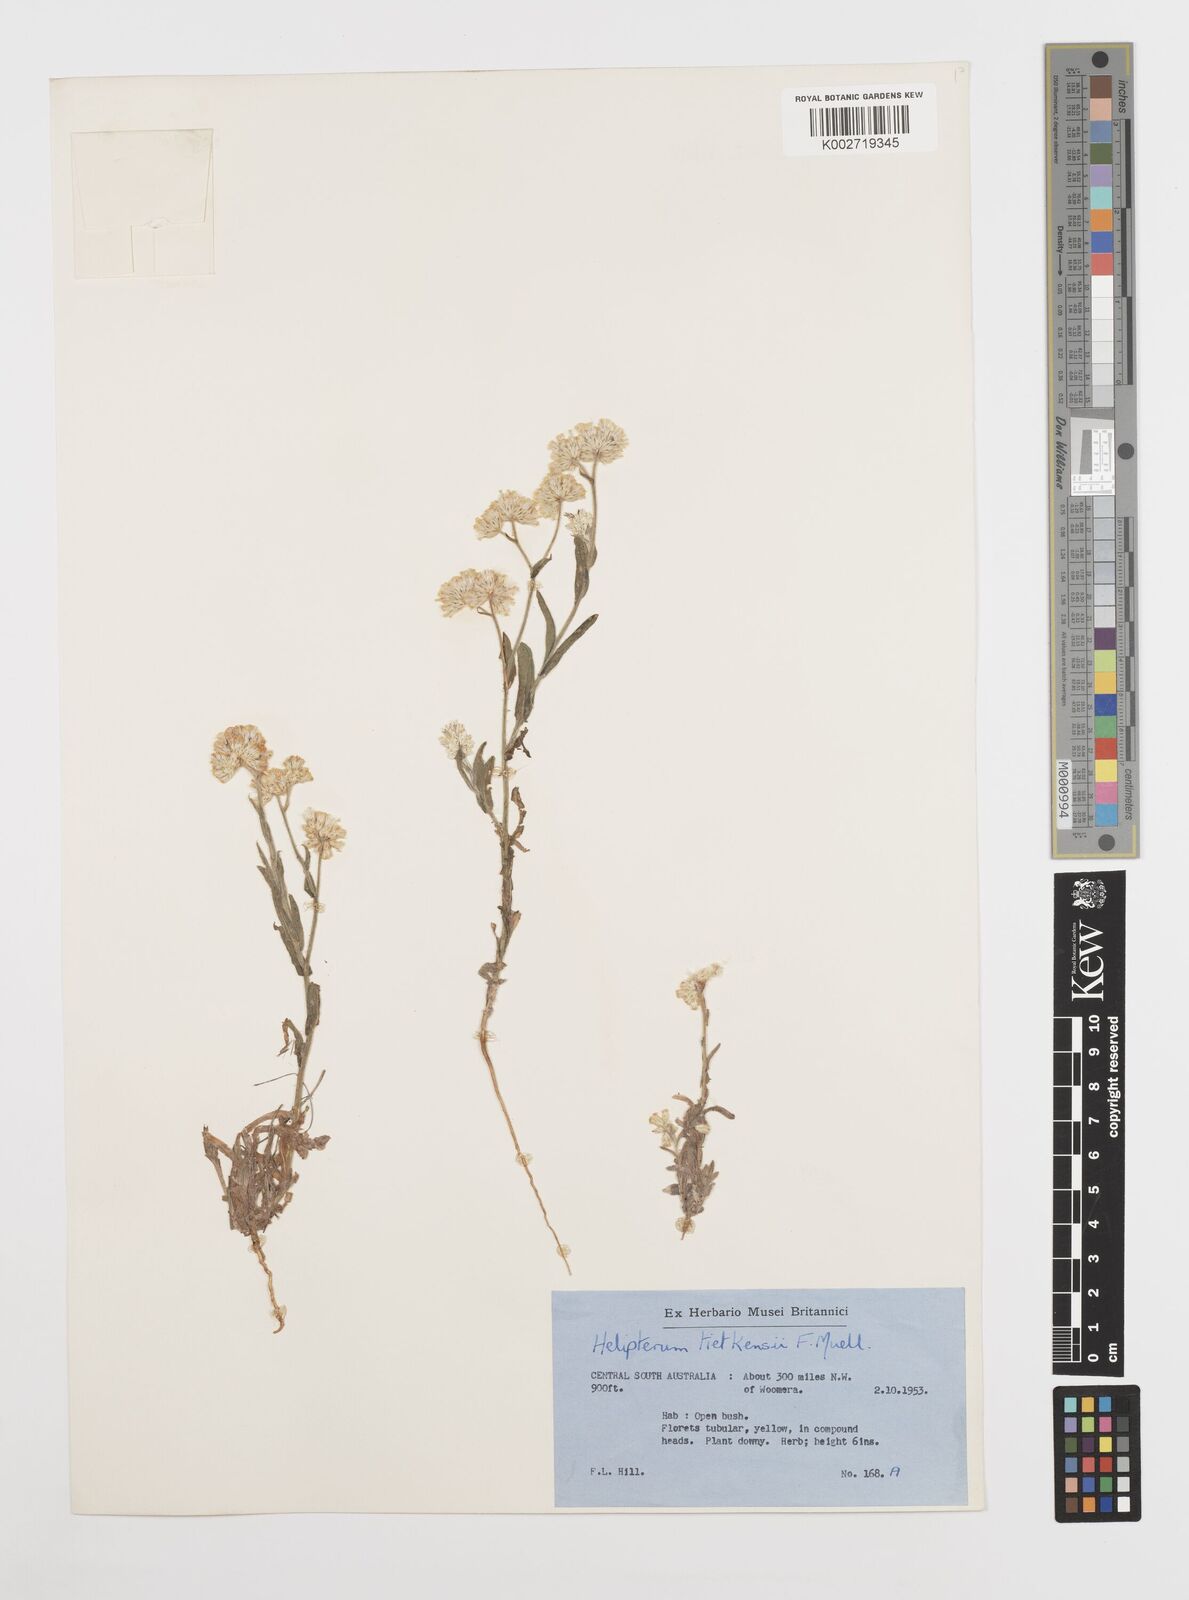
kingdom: Plantae
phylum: Tracheophyta
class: Magnoliopsida
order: Asterales
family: Asteraceae
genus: Rhodanthe
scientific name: Rhodanthe tietkensii
